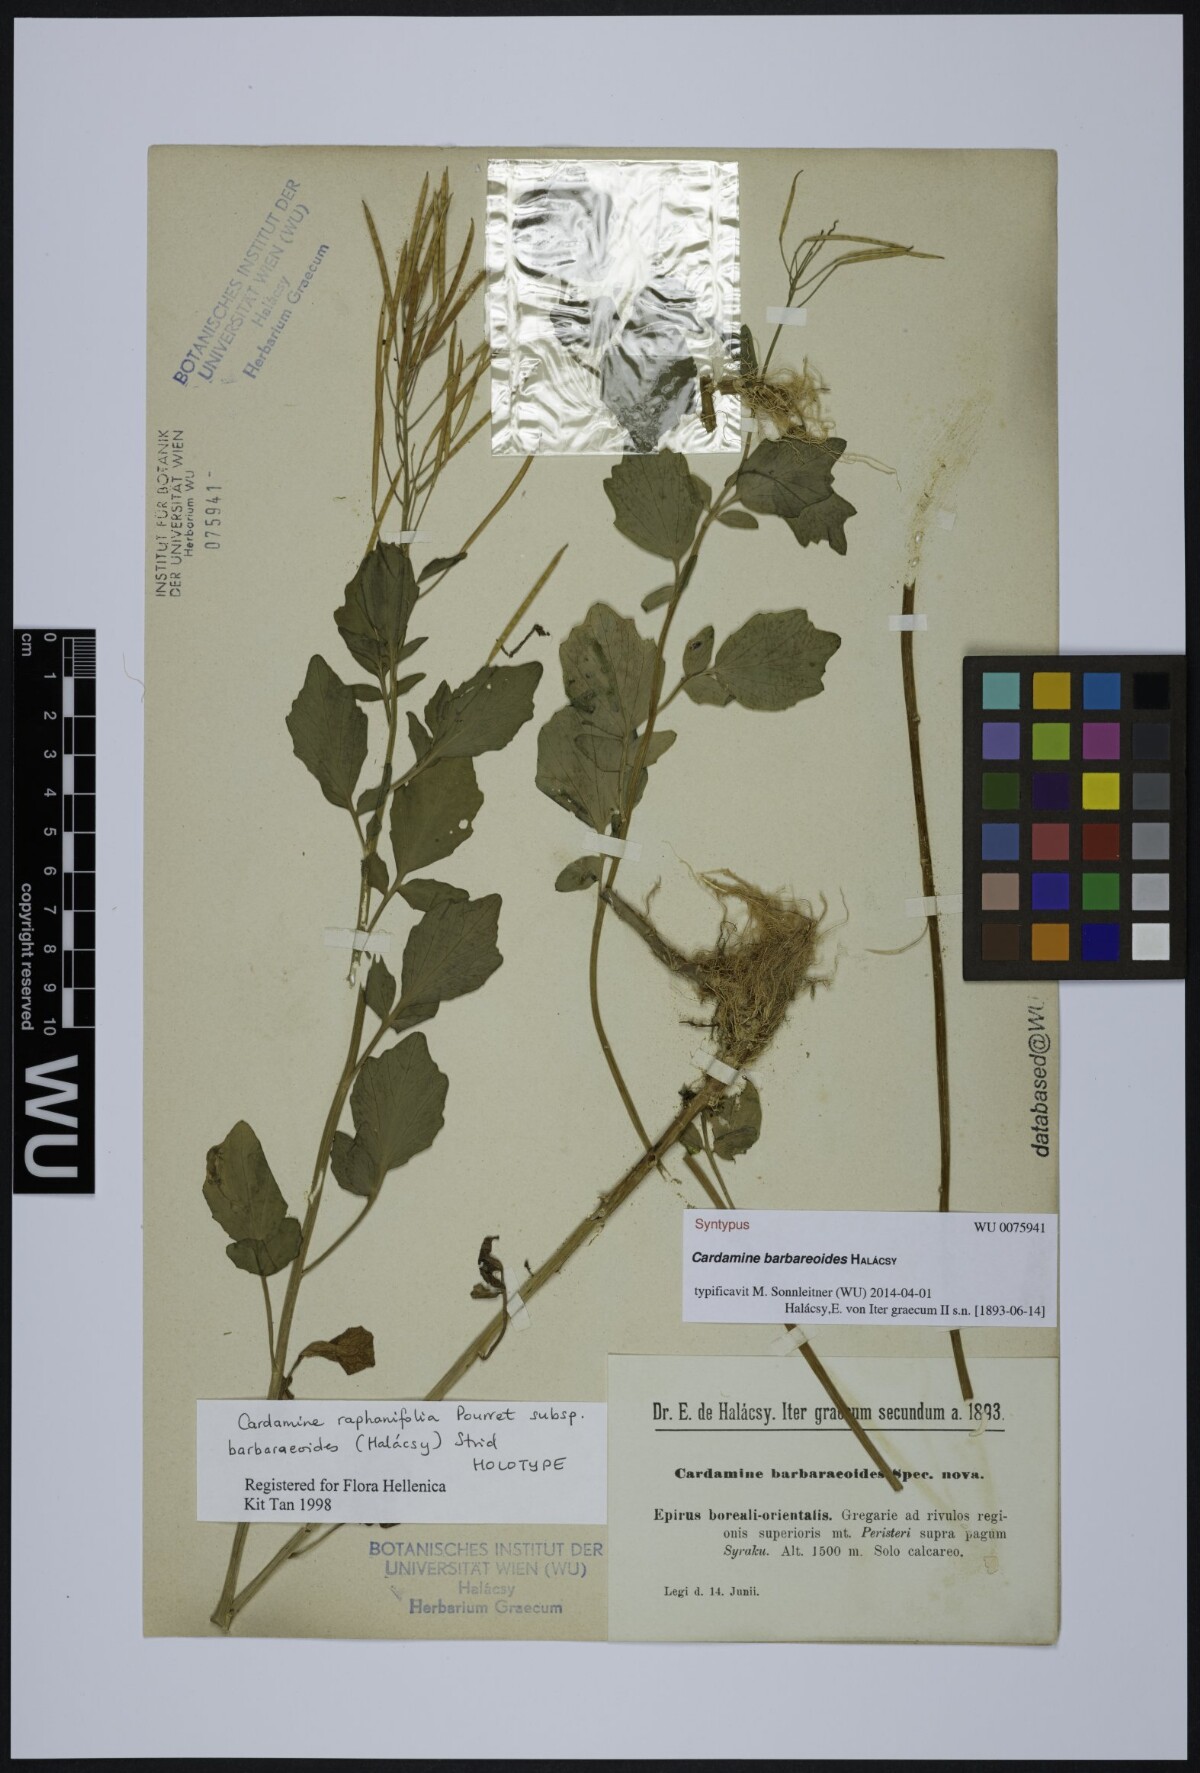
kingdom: Plantae
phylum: Tracheophyta
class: Magnoliopsida
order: Brassicales
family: Brassicaceae
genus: Cardamine
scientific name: Cardamine barbaraeoides
